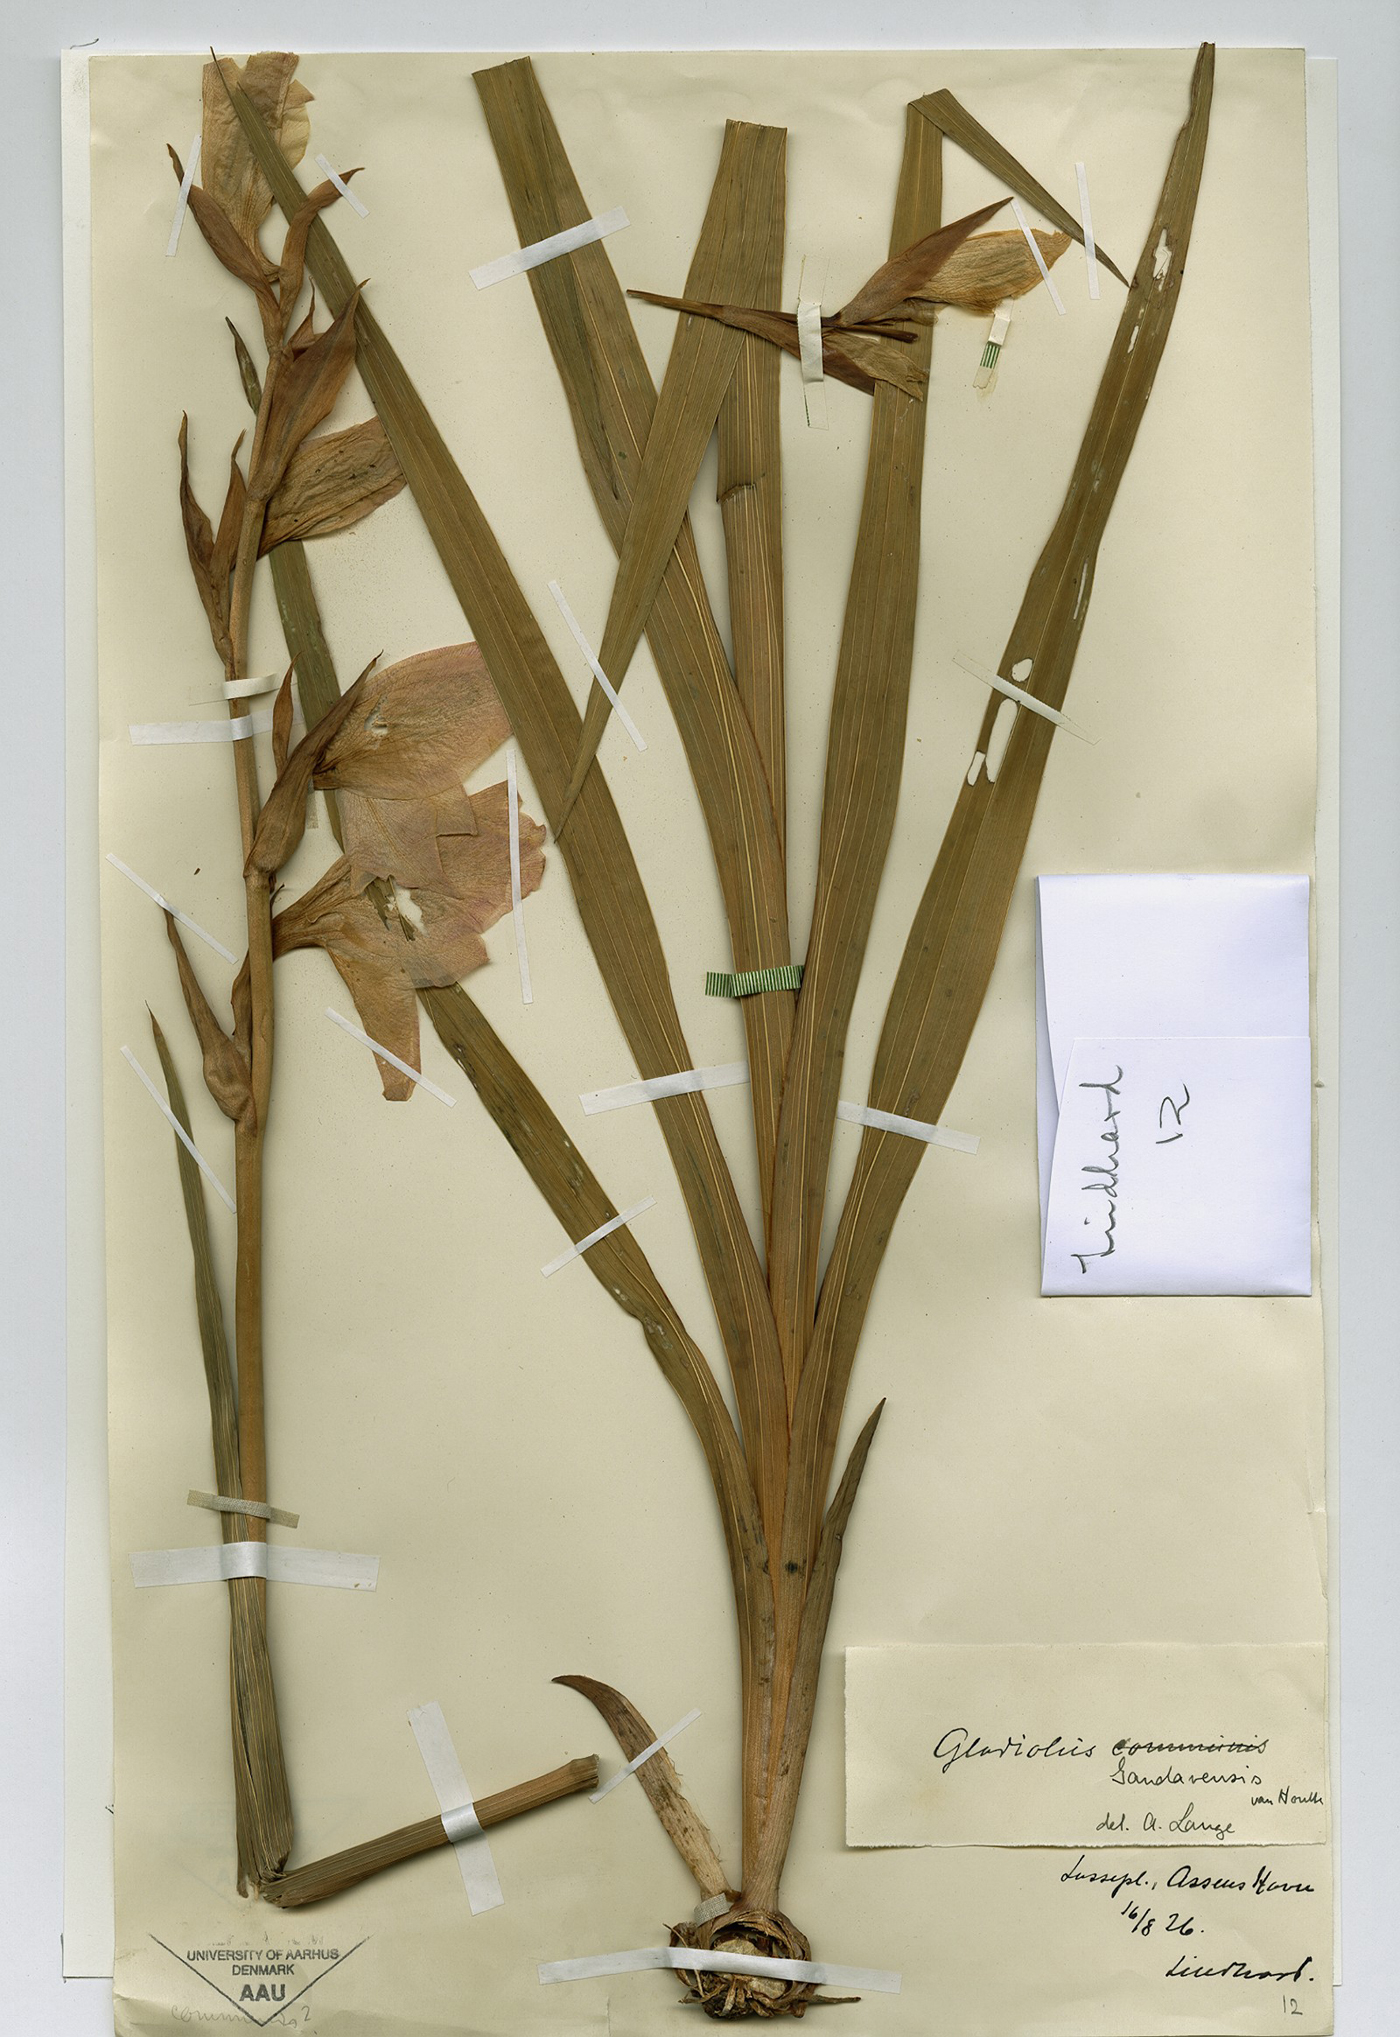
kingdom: Plantae
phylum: Tracheophyta
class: Liliopsida
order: Asparagales
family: Iridaceae
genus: Gladiolus
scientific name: Gladiolus hortulanus
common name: Large-flowered gladiolus
